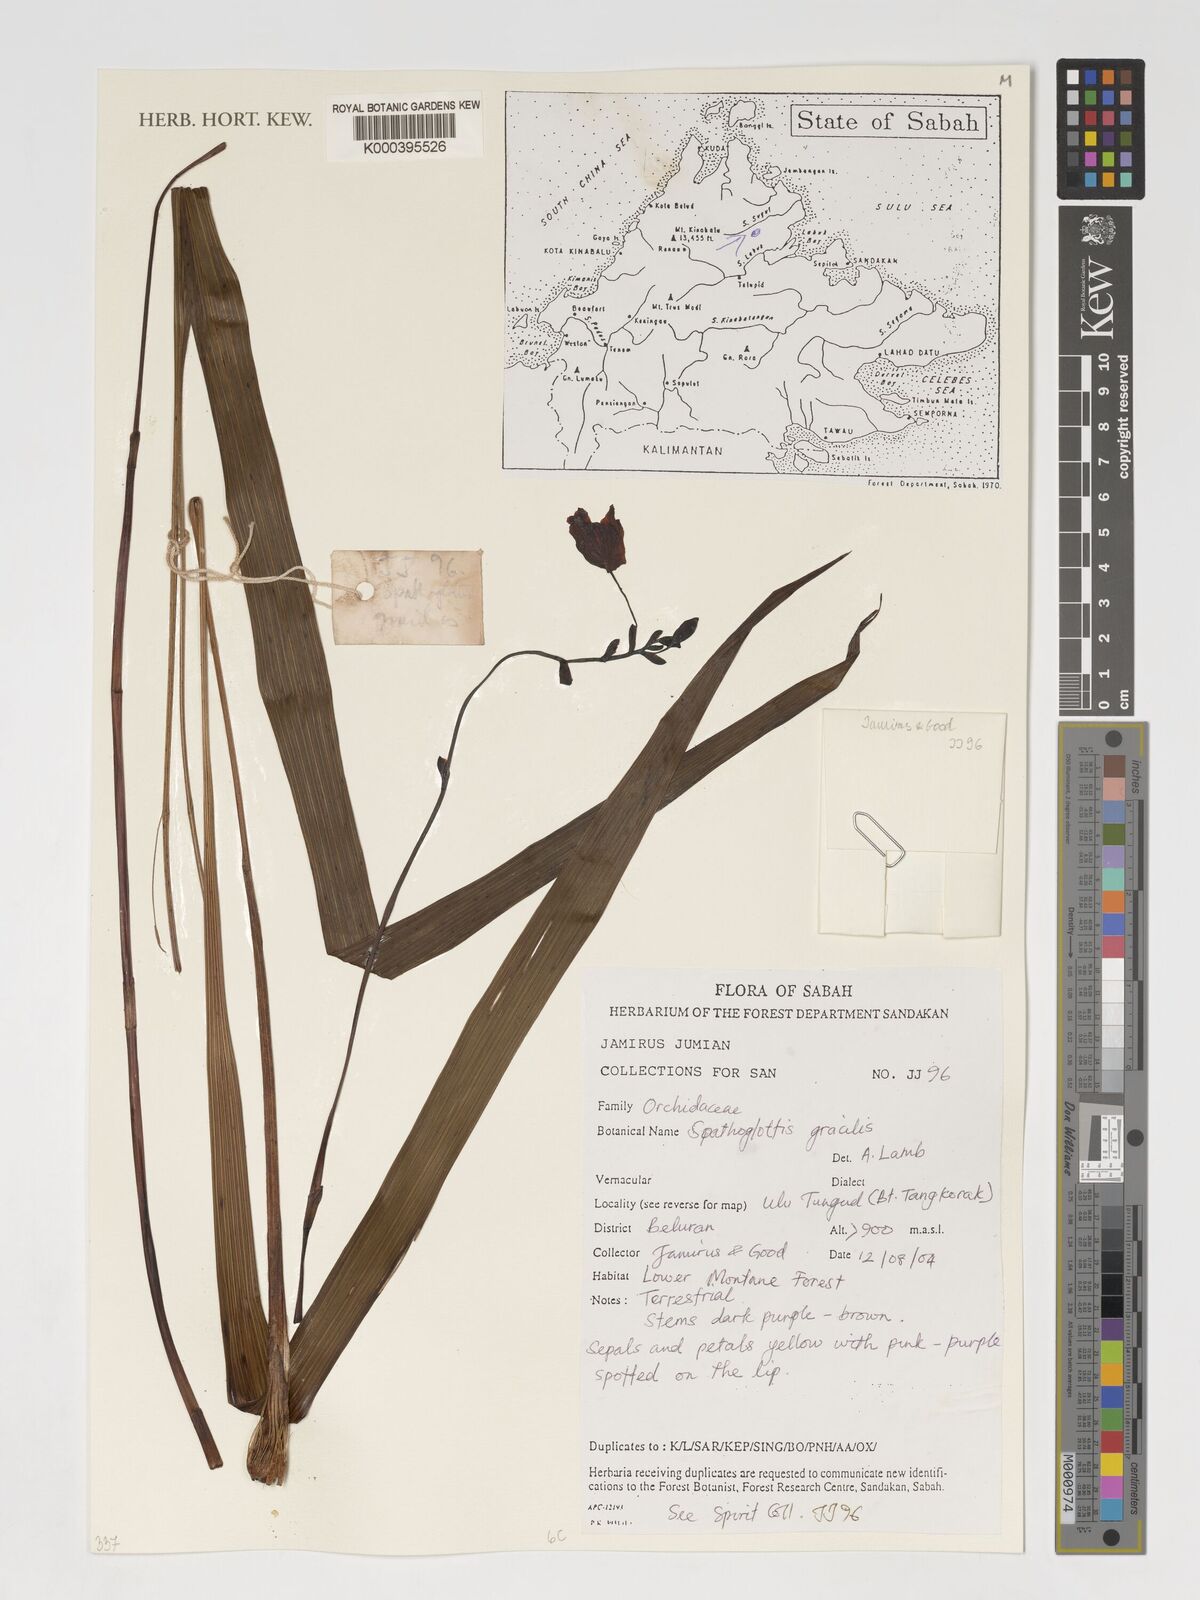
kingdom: Plantae
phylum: Tracheophyta
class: Liliopsida
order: Asparagales
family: Orchidaceae
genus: Spathoglottis
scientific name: Spathoglottis gracilis
